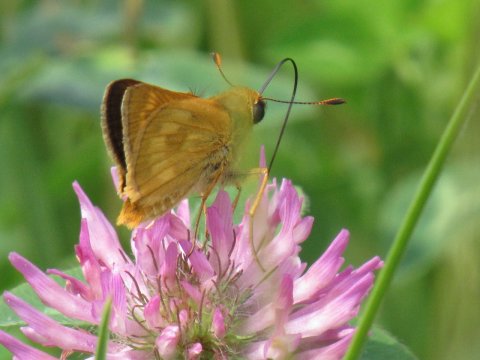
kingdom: Animalia
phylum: Arthropoda
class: Insecta
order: Lepidoptera
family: Hesperiidae
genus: Polites
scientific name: Polites
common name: Long Dash Skipper
